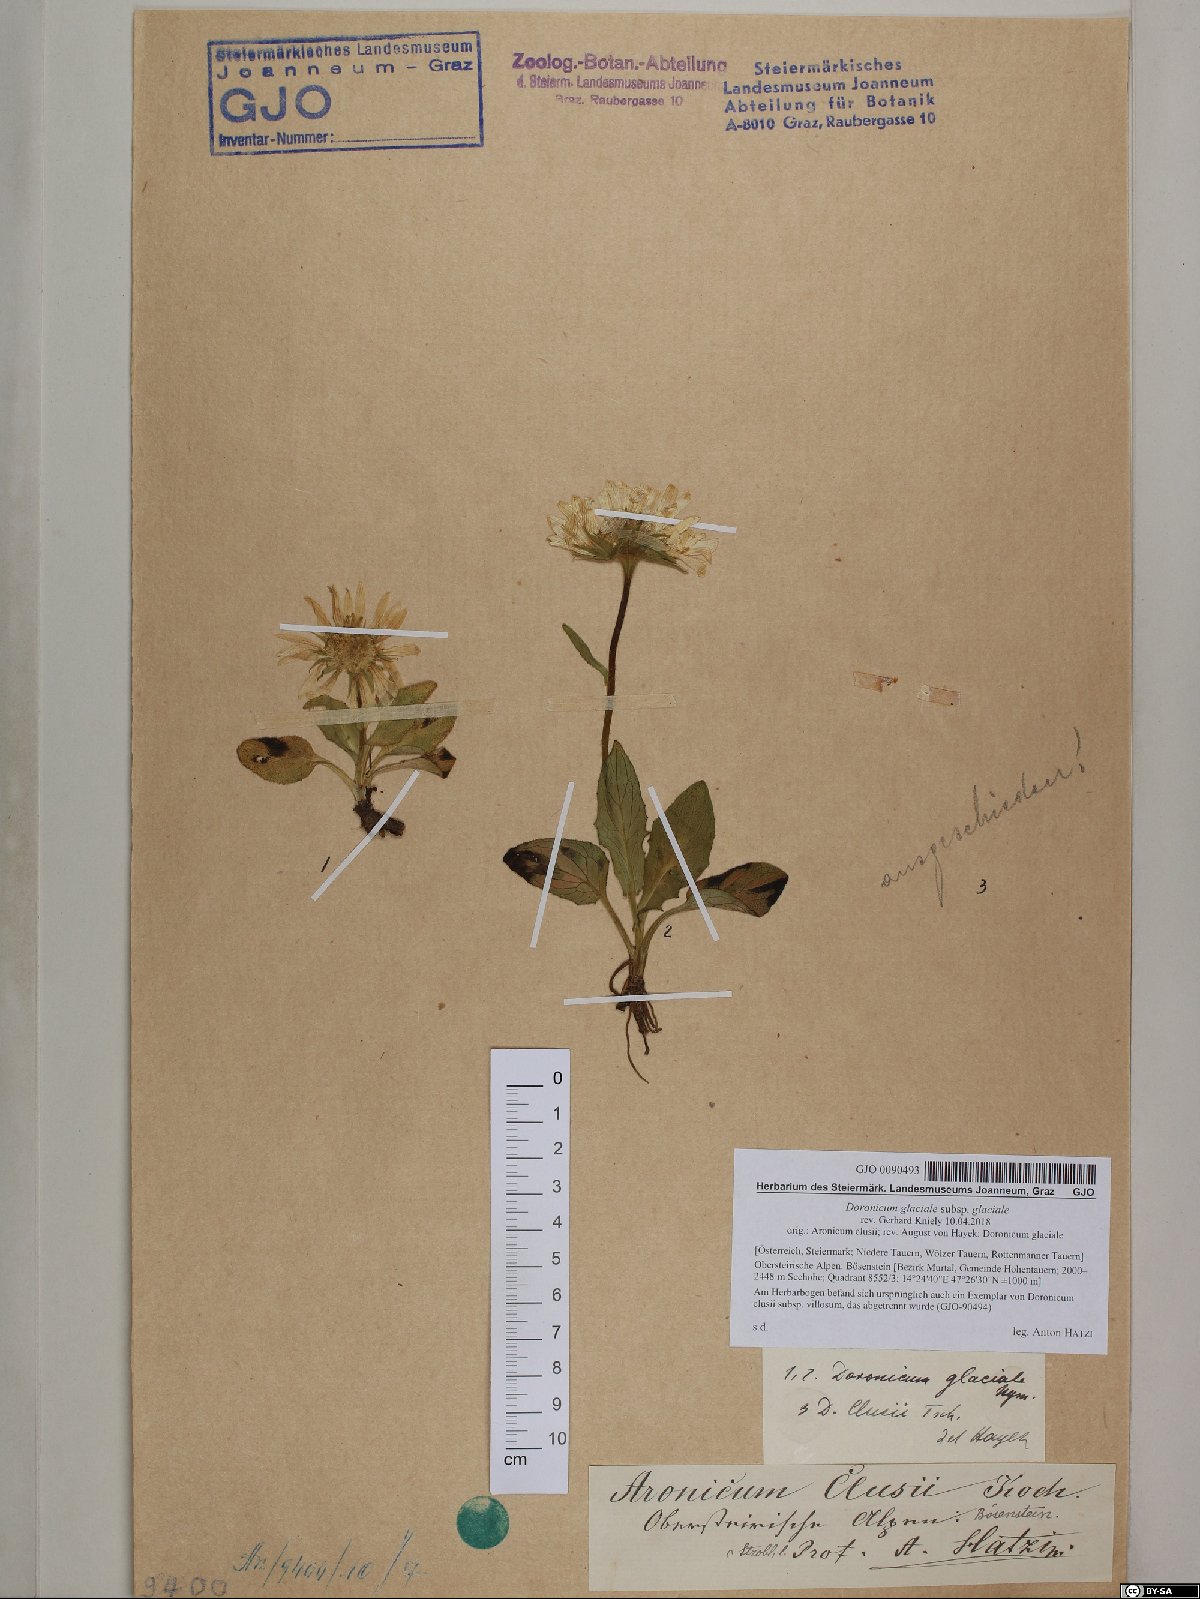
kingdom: Plantae
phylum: Tracheophyta
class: Magnoliopsida
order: Asterales
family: Asteraceae
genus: Doronicum
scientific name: Doronicum glaciale
